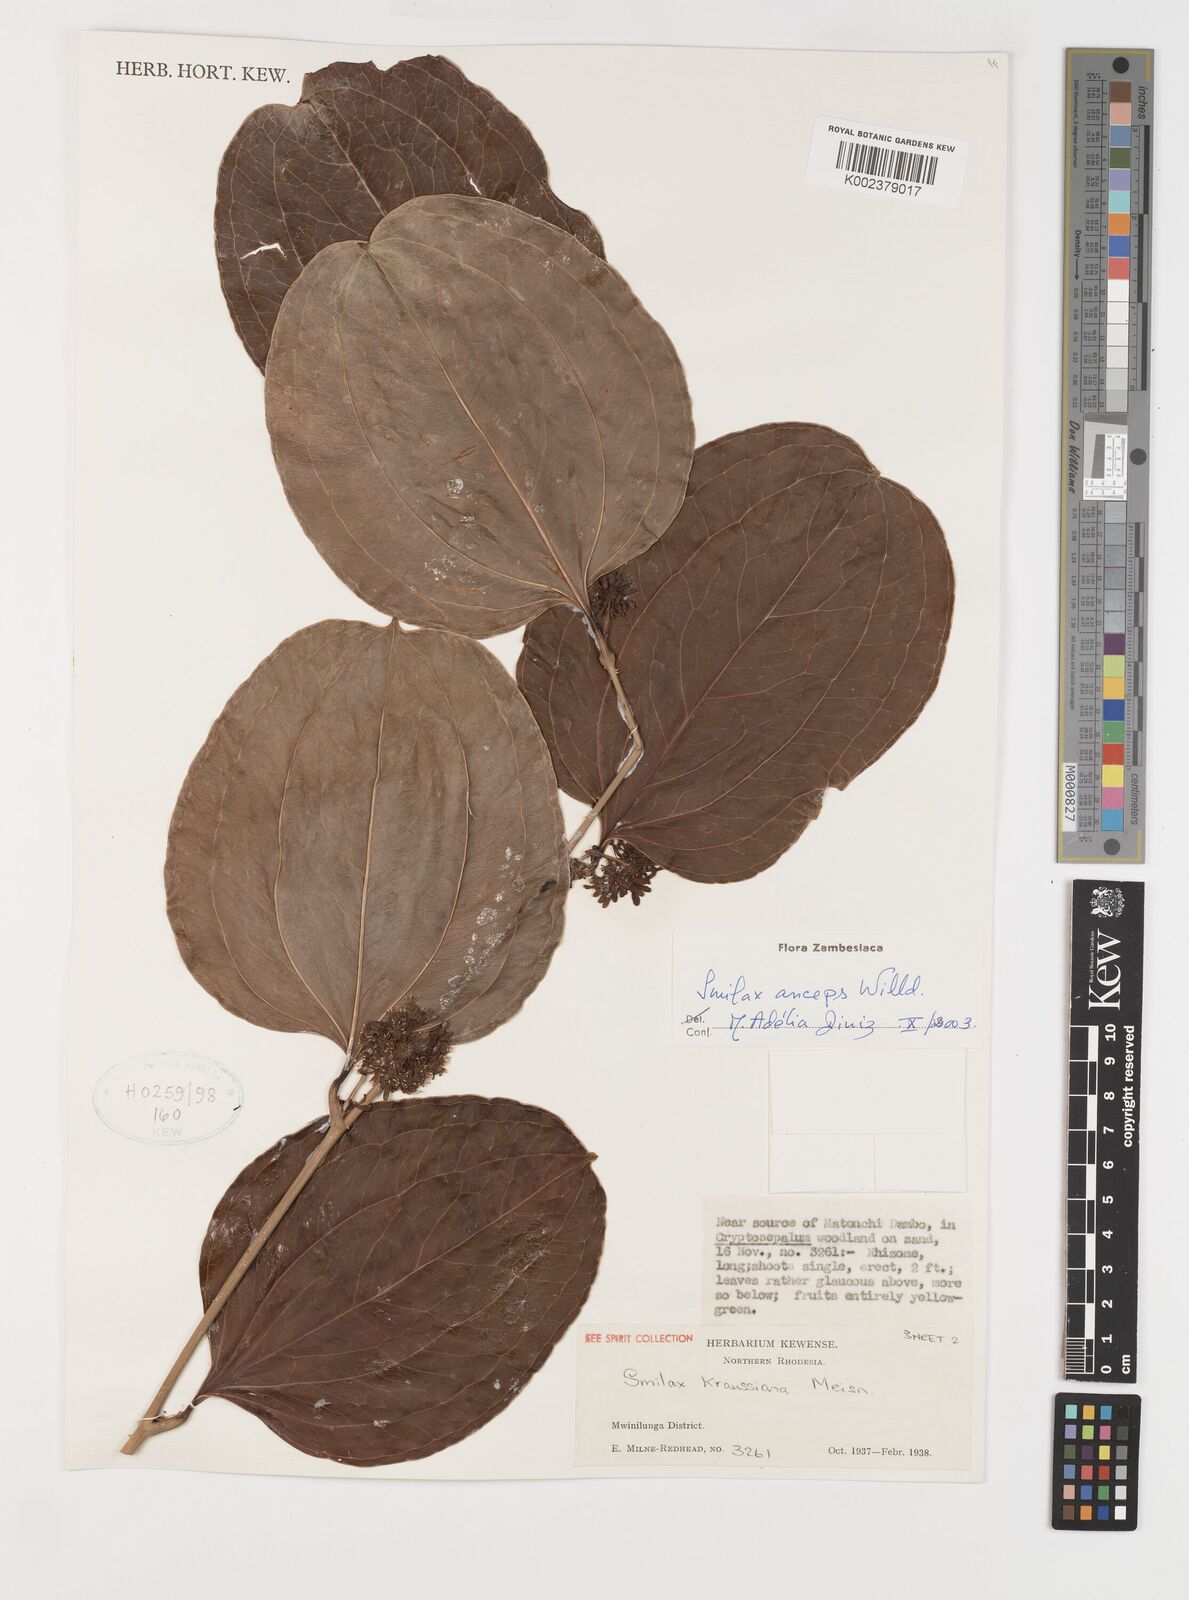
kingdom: Plantae
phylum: Tracheophyta
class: Liliopsida
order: Liliales
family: Smilacaceae
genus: Smilax
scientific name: Smilax anceps
